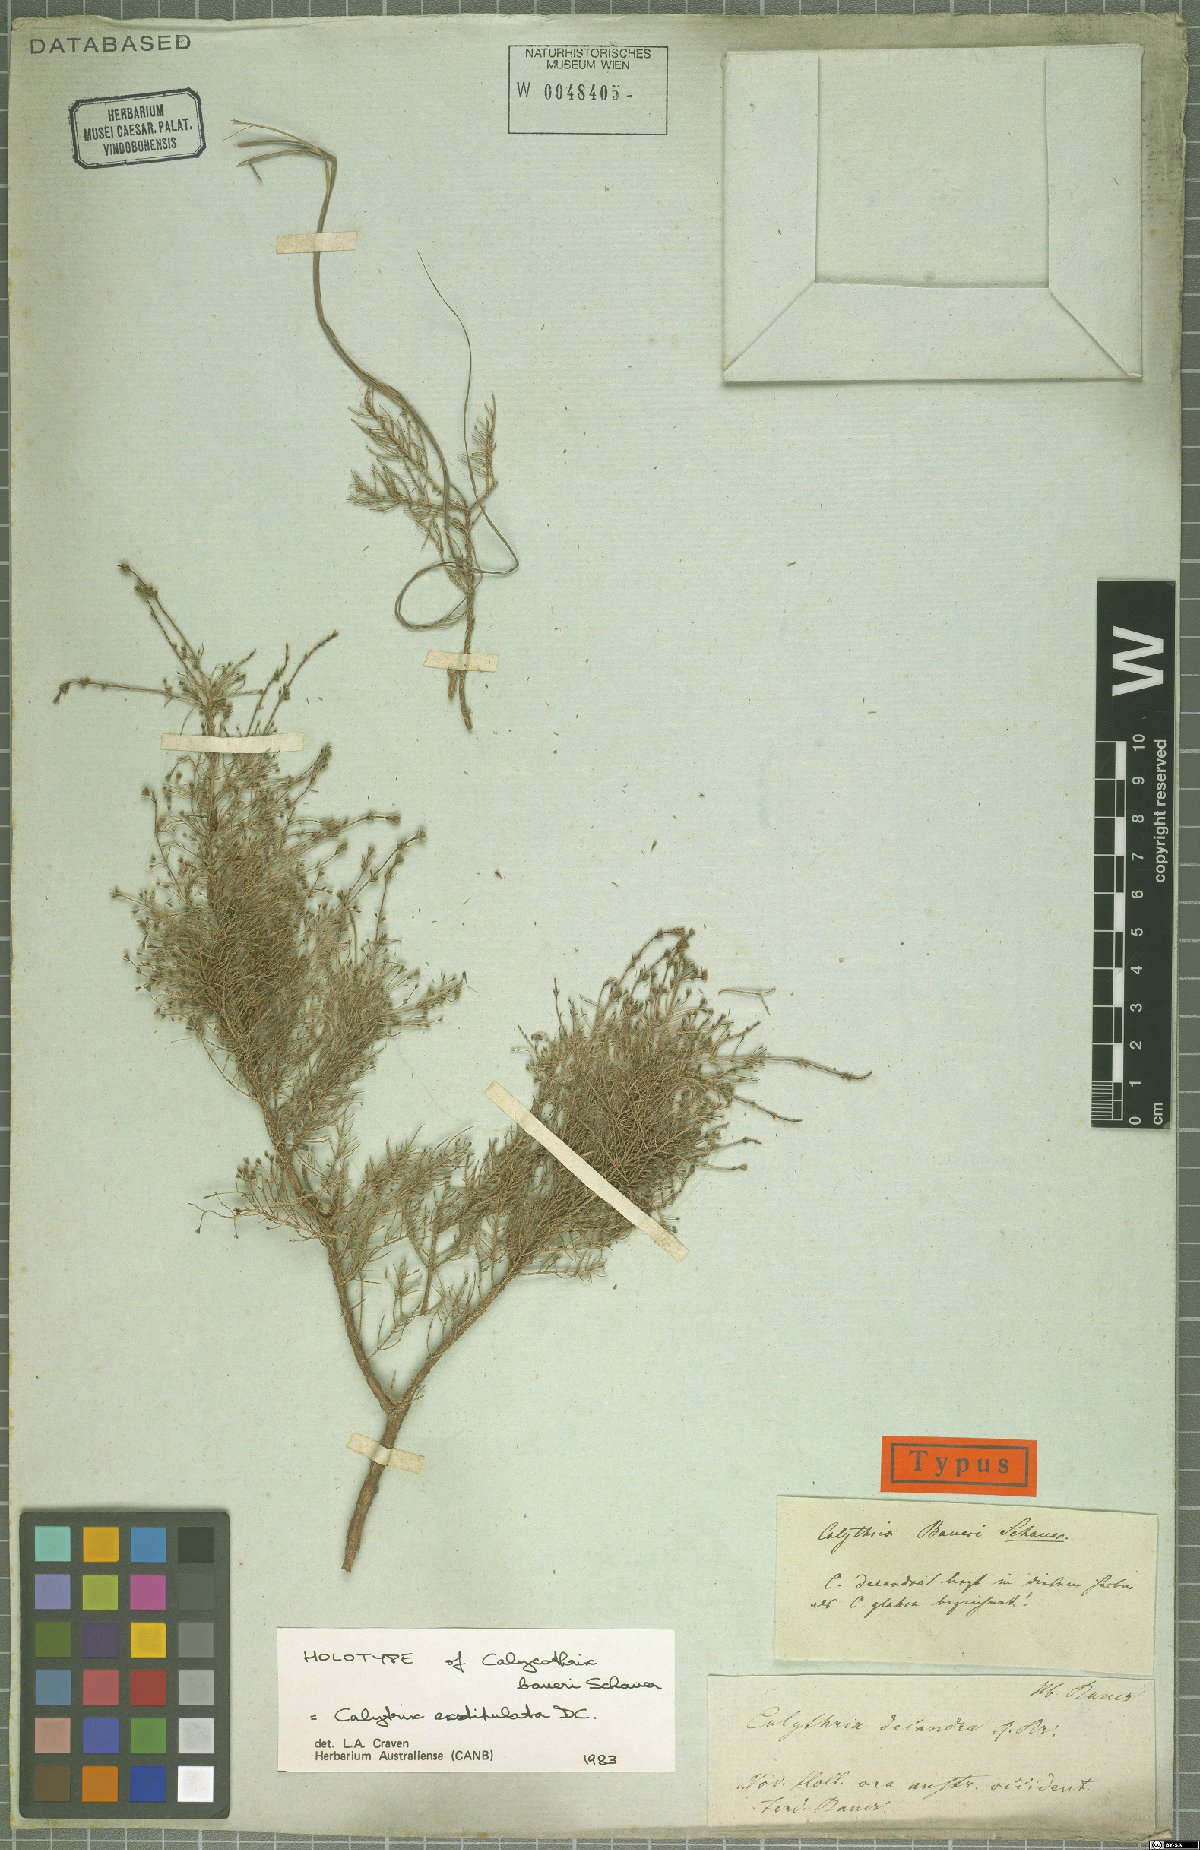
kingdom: Plantae
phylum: Tracheophyta
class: Magnoliopsida
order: Myrtales
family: Myrtaceae
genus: Calytrix
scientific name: Calytrix exstipulata
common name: Kimberley heather
